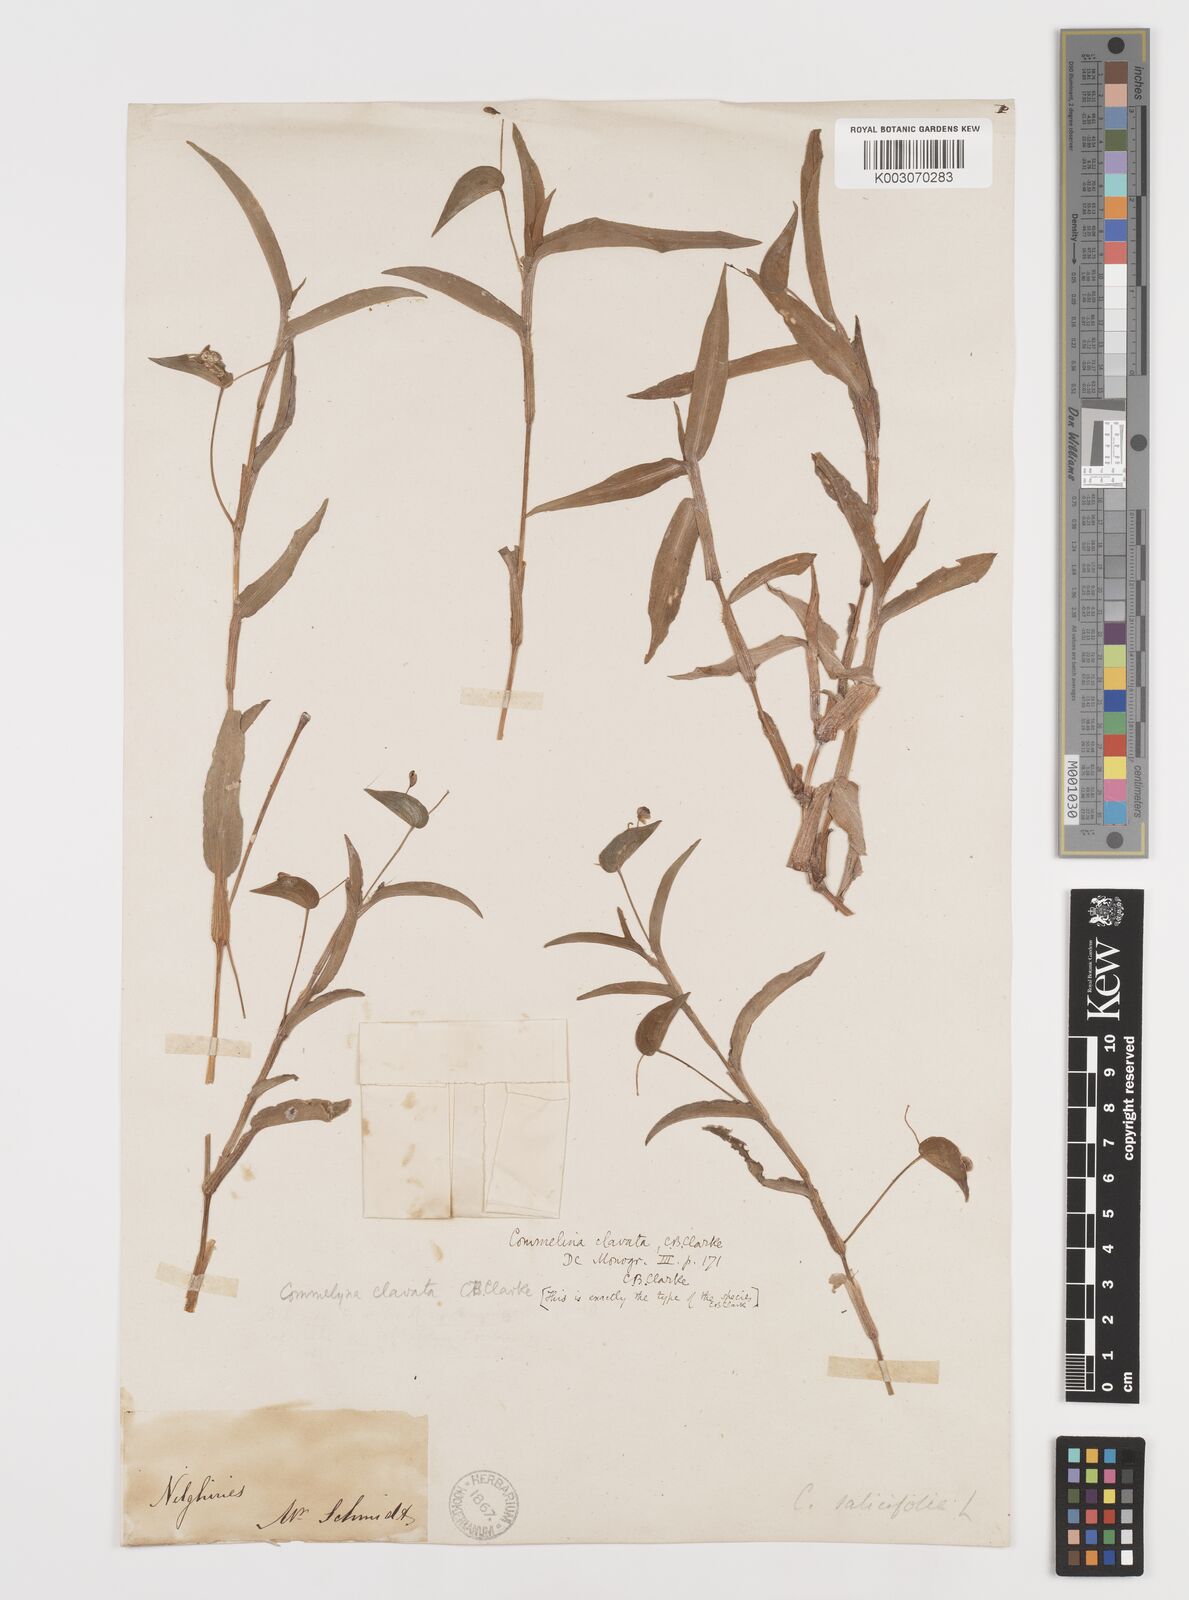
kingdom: Plantae
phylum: Tracheophyta
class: Liliopsida
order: Commelinales
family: Commelinaceae
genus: Commelina
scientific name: Commelina clavata
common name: Willow leaved dayflower
